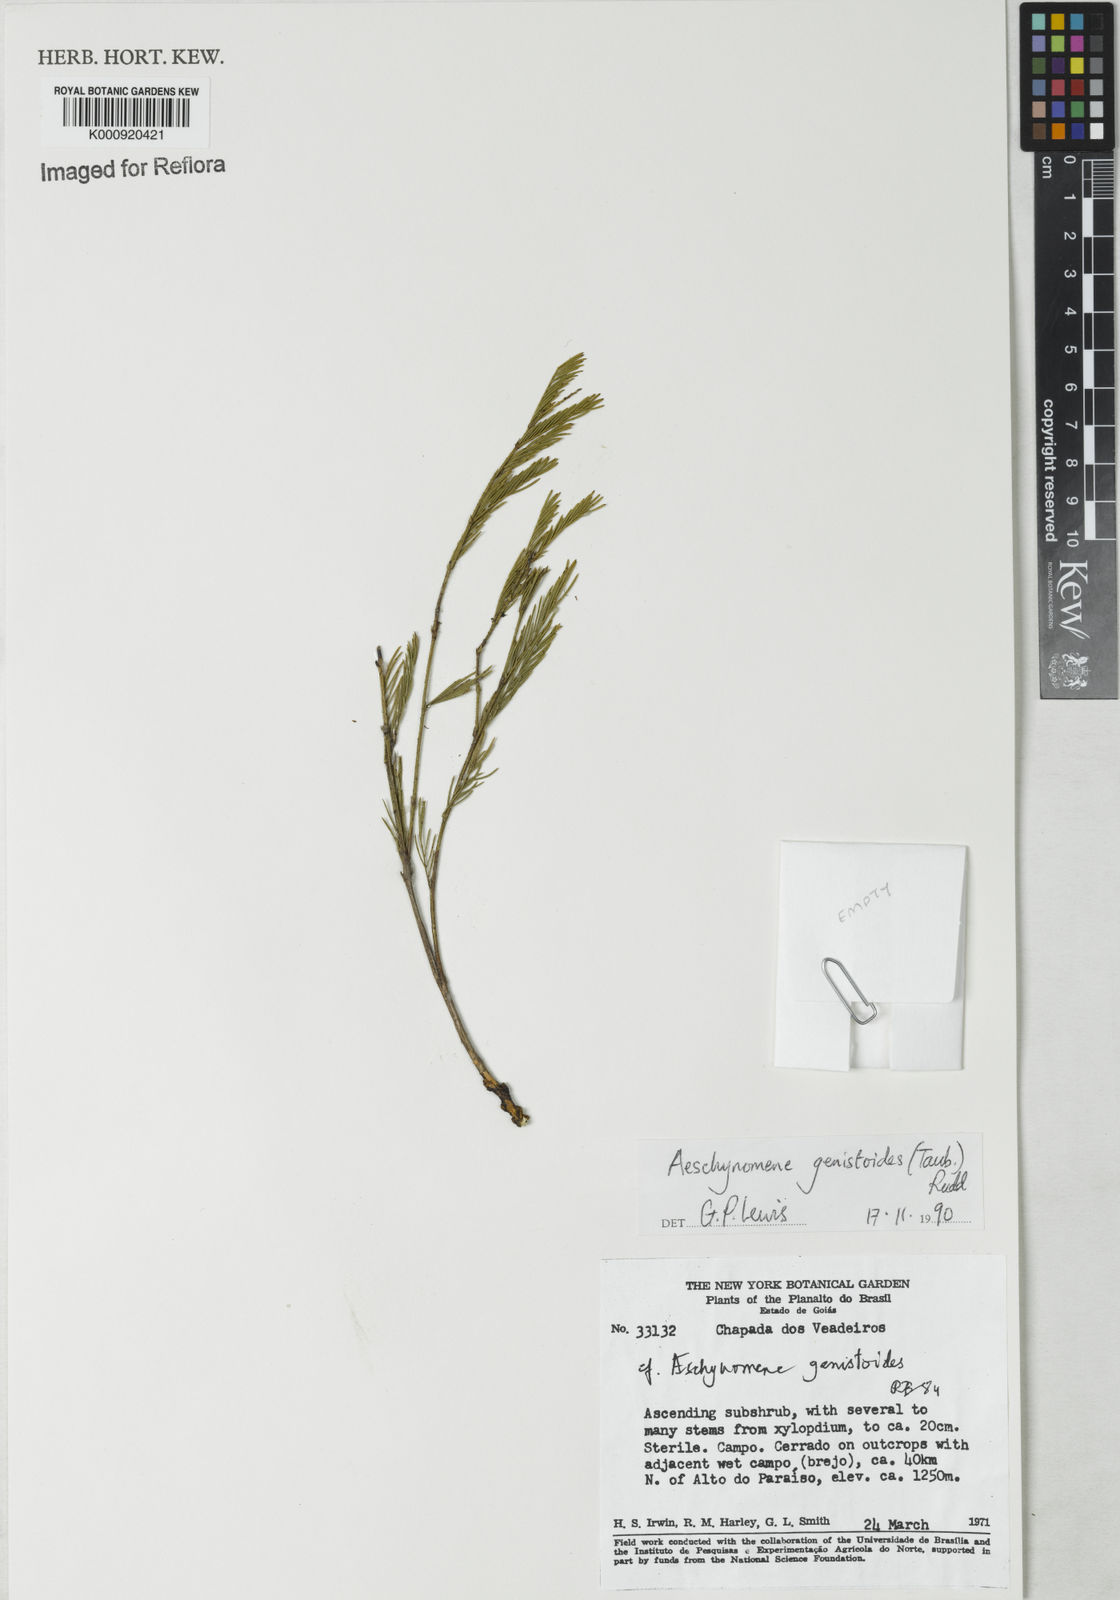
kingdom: Plantae
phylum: Tracheophyta
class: Magnoliopsida
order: Fabales
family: Fabaceae
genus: Ctenodon
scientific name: Ctenodon genistoides
